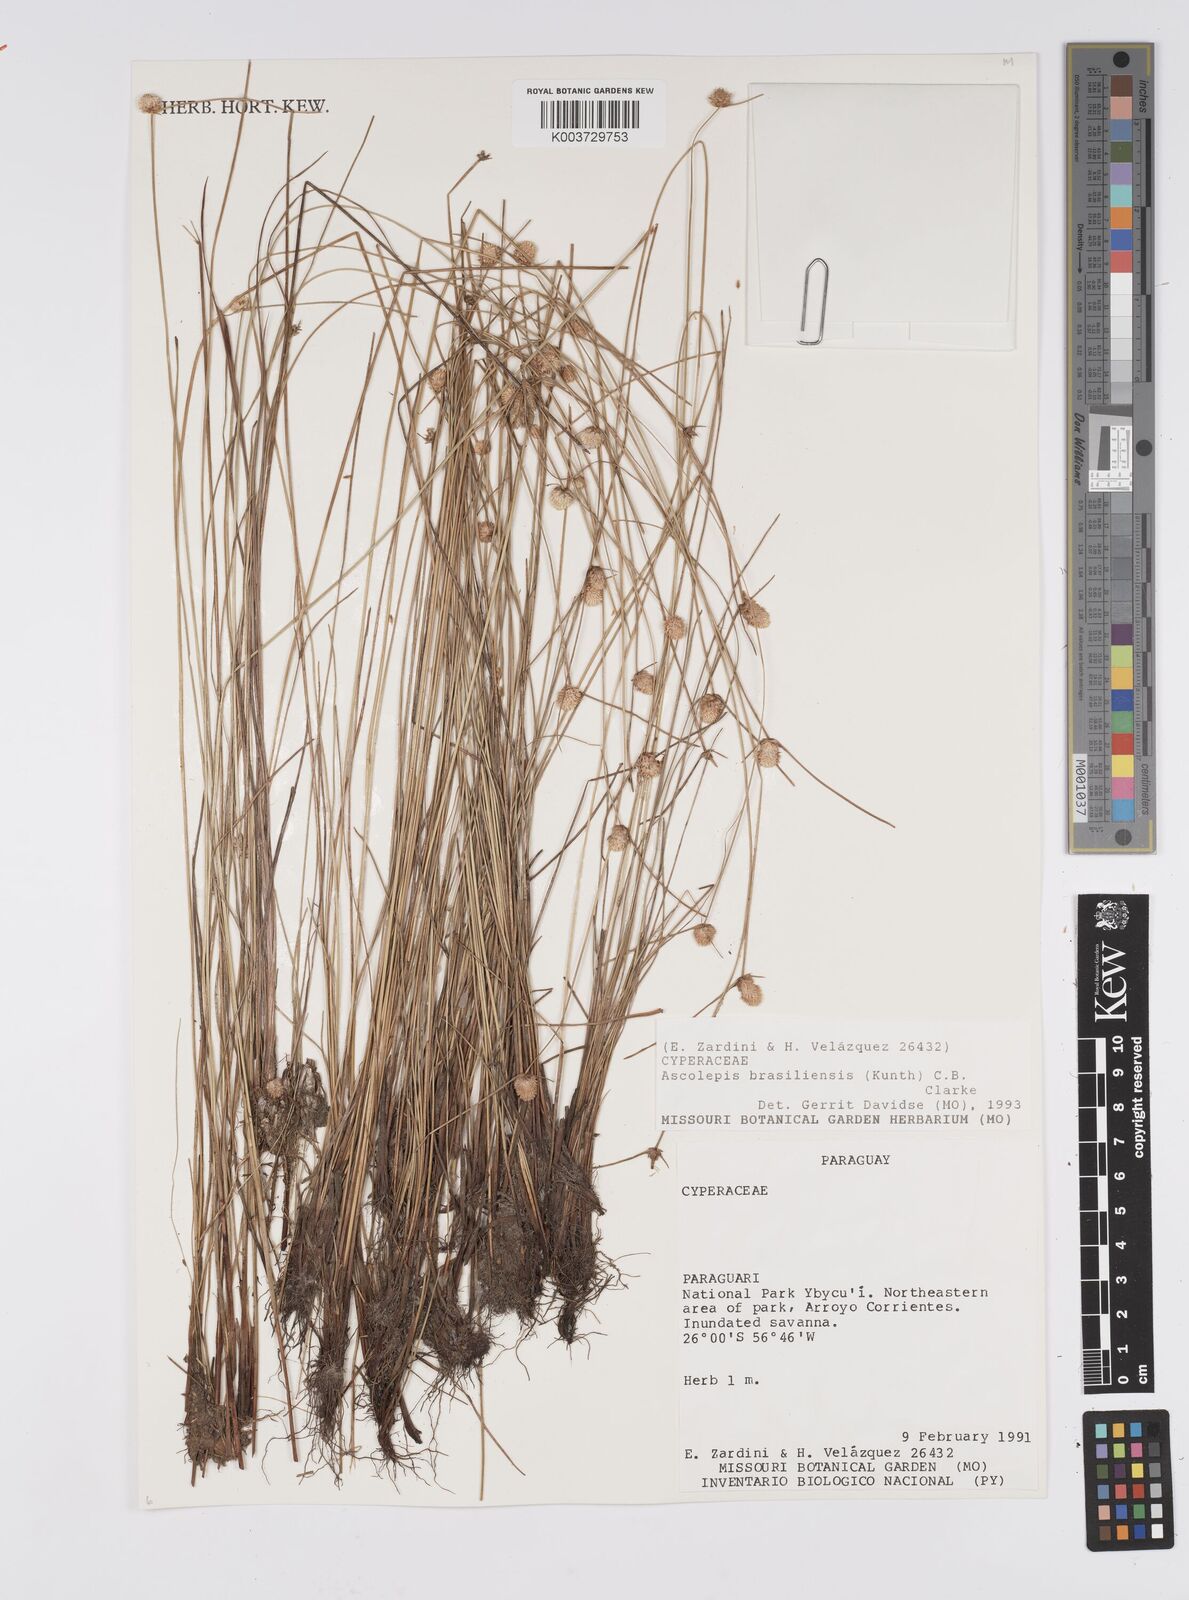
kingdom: Plantae
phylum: Tracheophyta
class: Liliopsida
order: Poales
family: Cyperaceae
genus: Cyperus
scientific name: Cyperus brasiliensis
